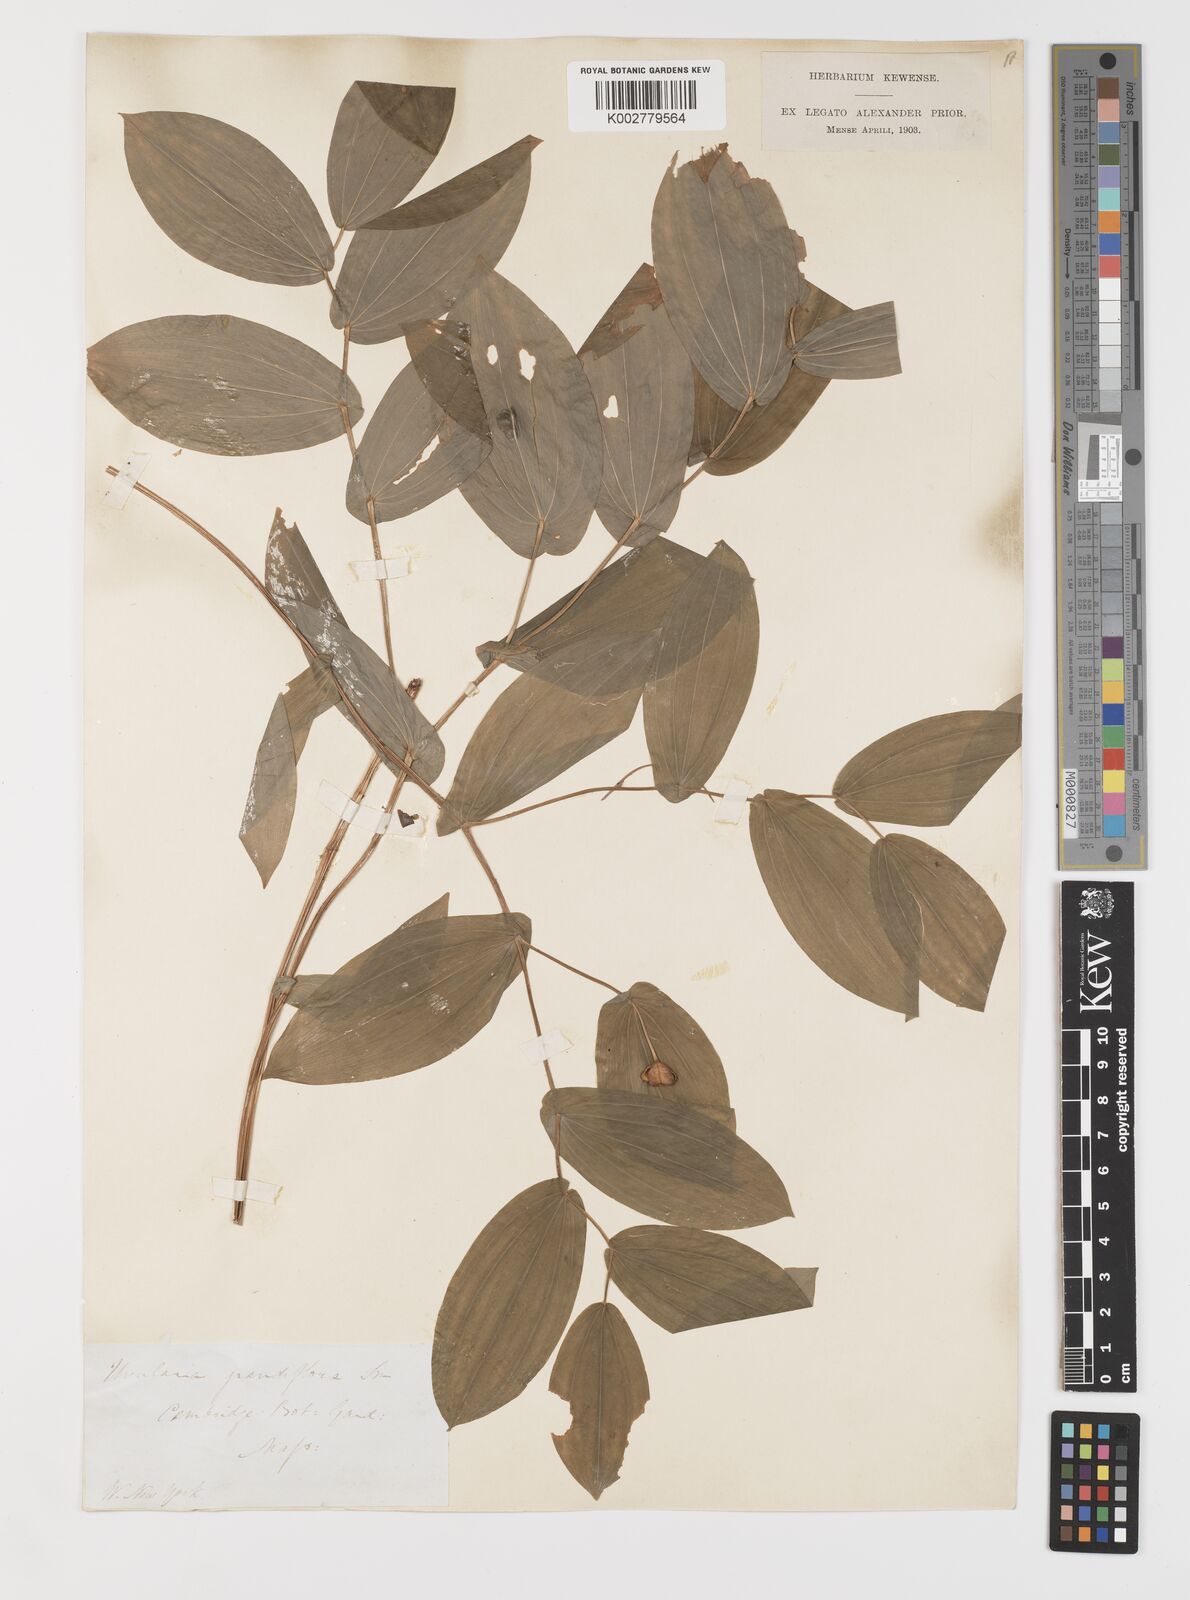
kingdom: Plantae
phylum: Tracheophyta
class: Liliopsida
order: Liliales
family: Colchicaceae
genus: Uvularia
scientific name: Uvularia grandiflora
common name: Bellwort
